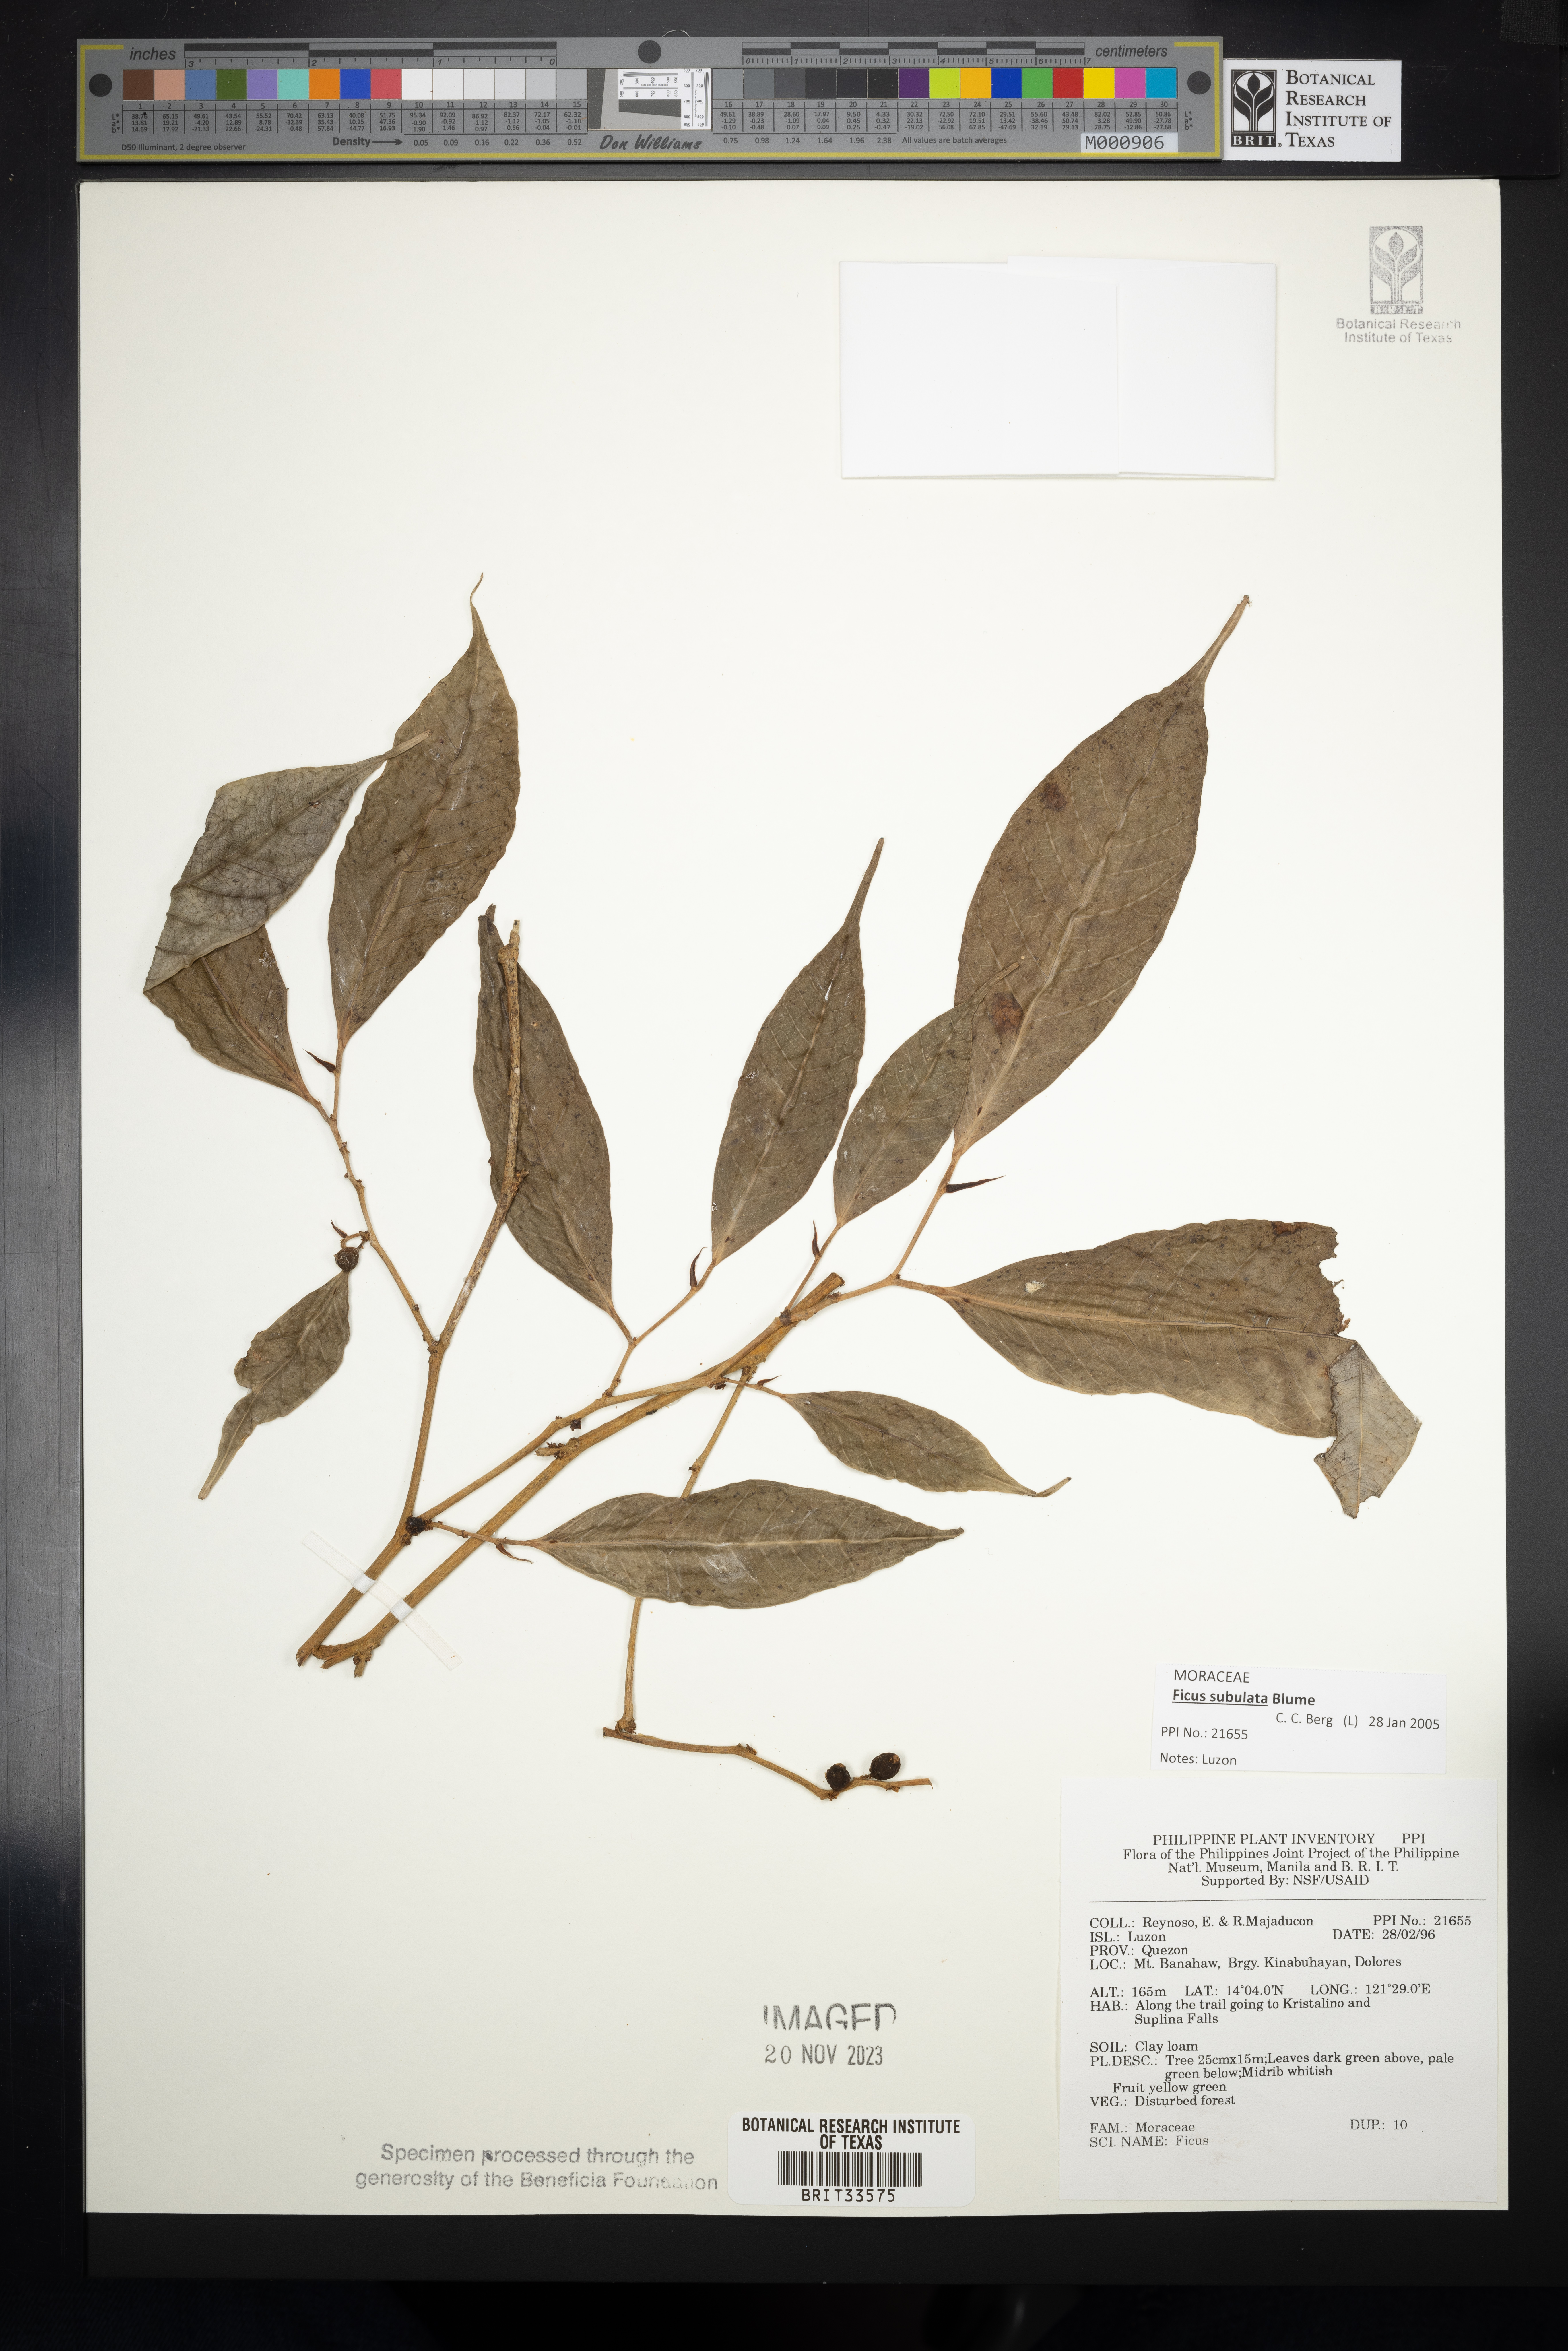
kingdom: Plantae
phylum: Tracheophyta
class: Magnoliopsida
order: Rosales
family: Moraceae
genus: Ficus
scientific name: Ficus
